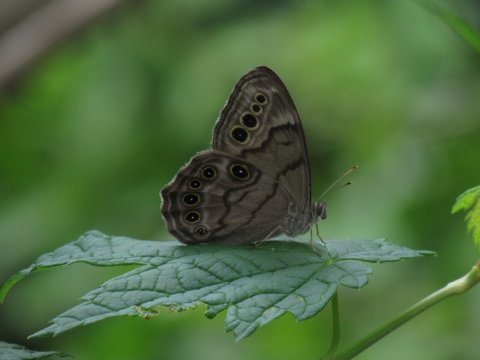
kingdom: Animalia
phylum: Arthropoda
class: Insecta
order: Lepidoptera
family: Nymphalidae
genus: Lethe
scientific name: Lethe anthedon
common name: Northern Pearly-Eye
